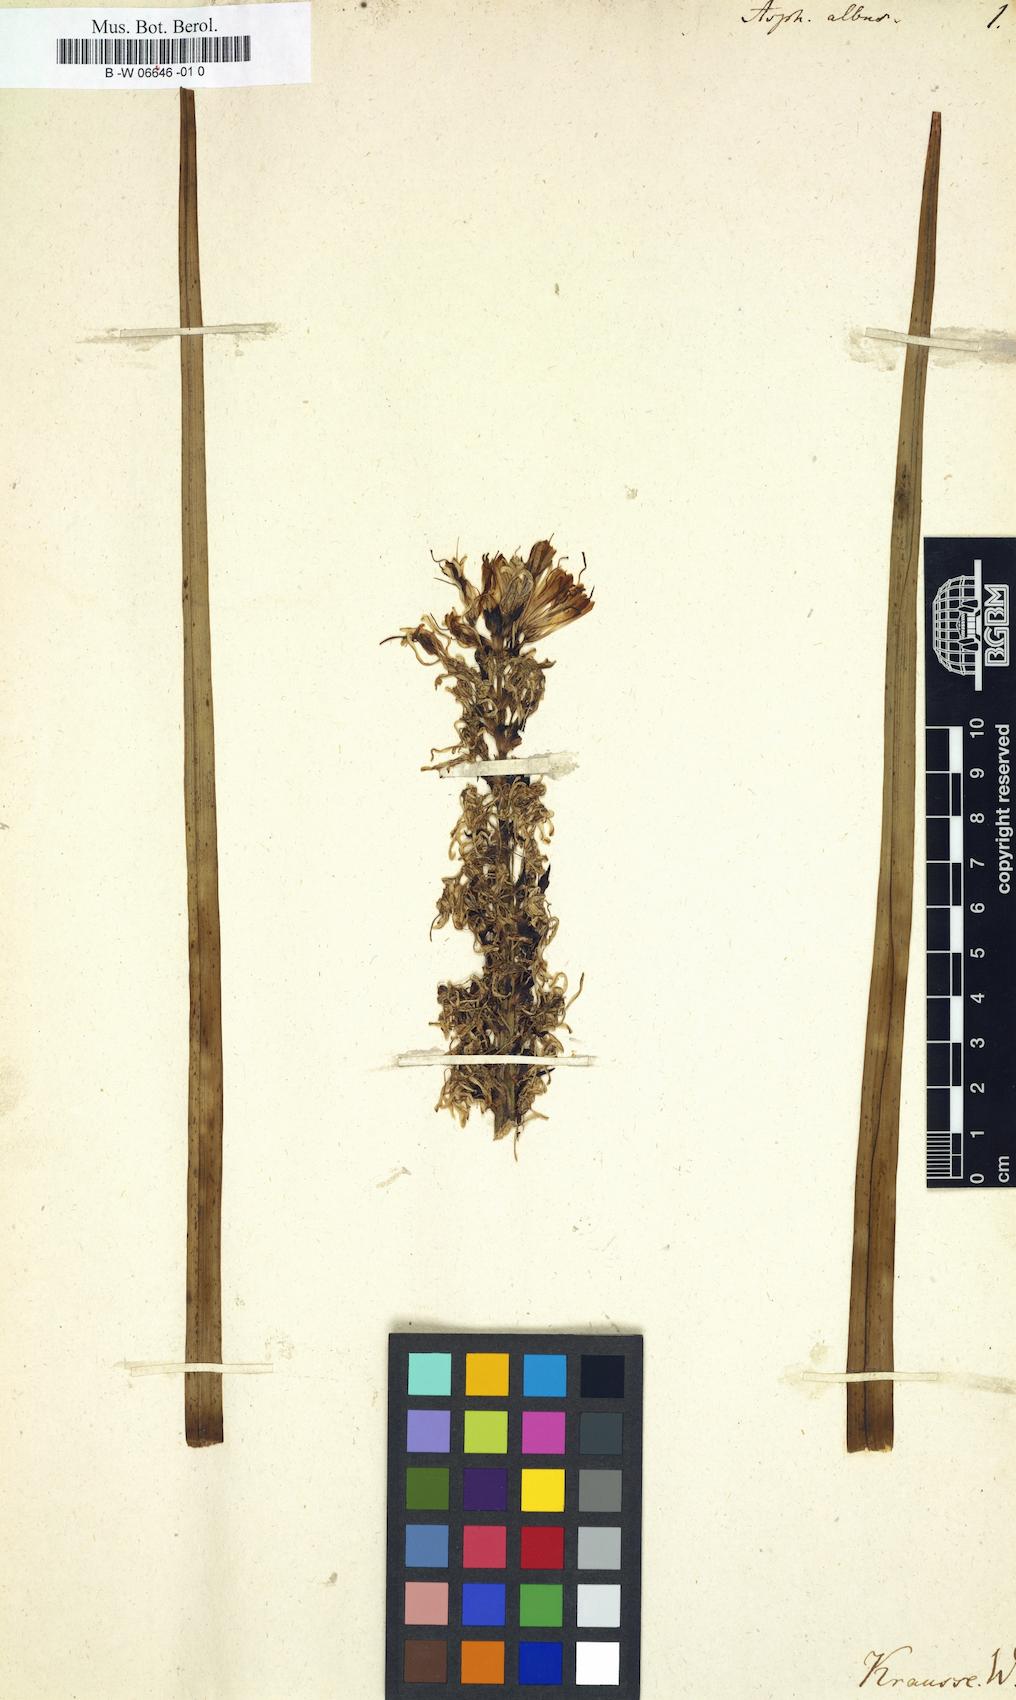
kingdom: Plantae
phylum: Tracheophyta
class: Liliopsida
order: Asparagales
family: Asphodelaceae
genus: Asphodelus
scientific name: Asphodelus albus
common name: White asphodel
